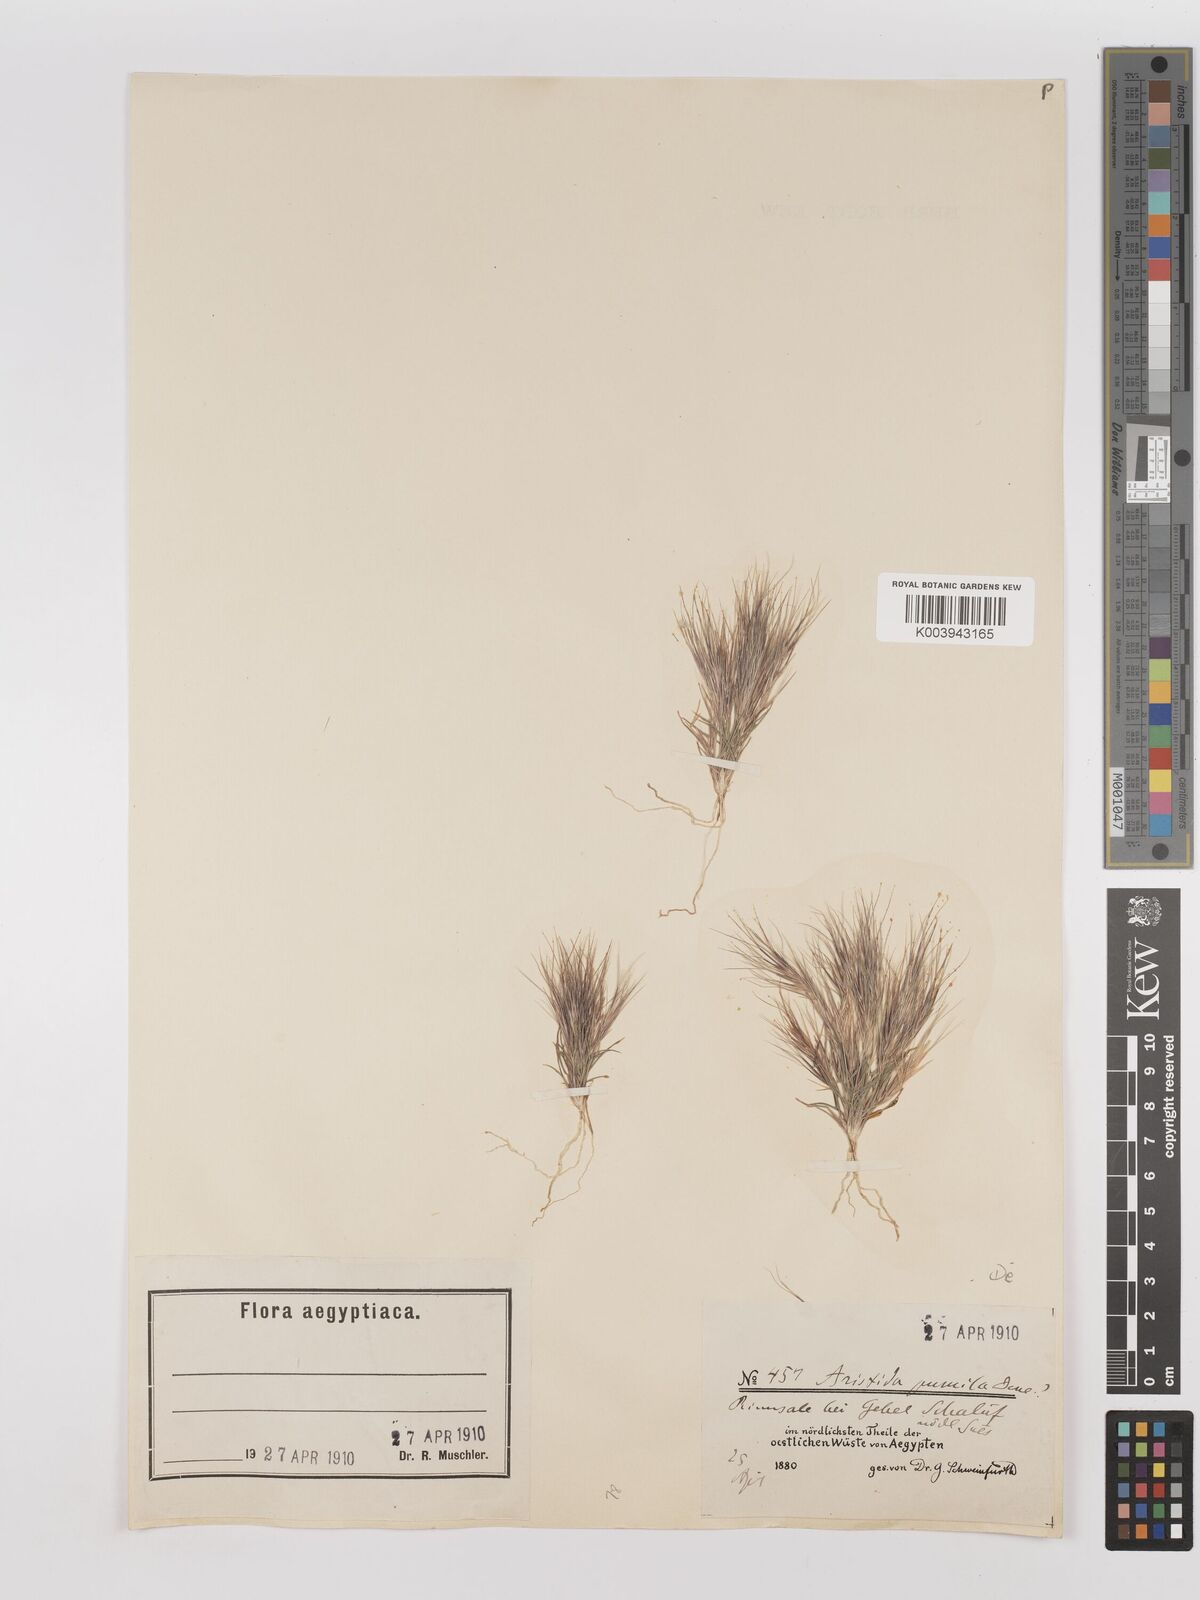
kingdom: Plantae
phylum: Tracheophyta
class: Liliopsida
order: Poales
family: Poaceae
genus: Aristida
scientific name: Aristida adscensionis
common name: Sixweeks threeawn
